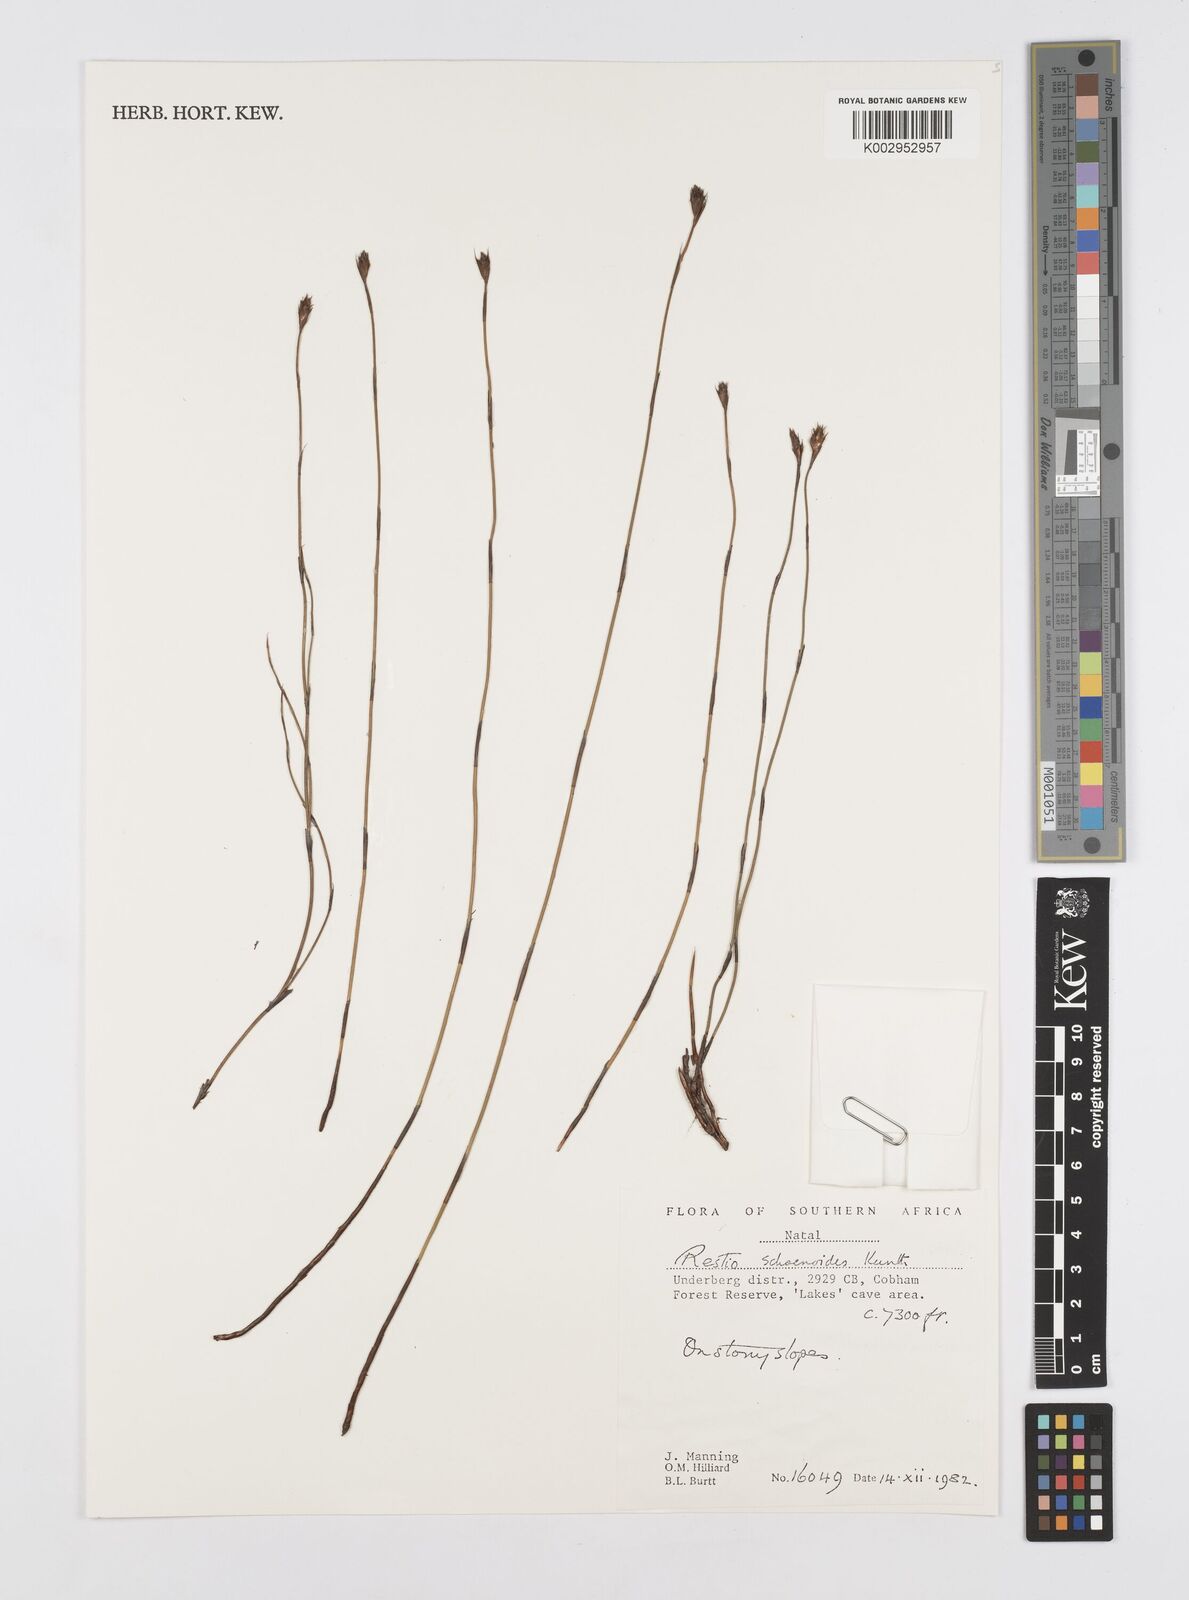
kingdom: Plantae
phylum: Tracheophyta
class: Liliopsida
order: Poales
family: Restionaceae
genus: Restio
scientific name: Restio schoenoides
